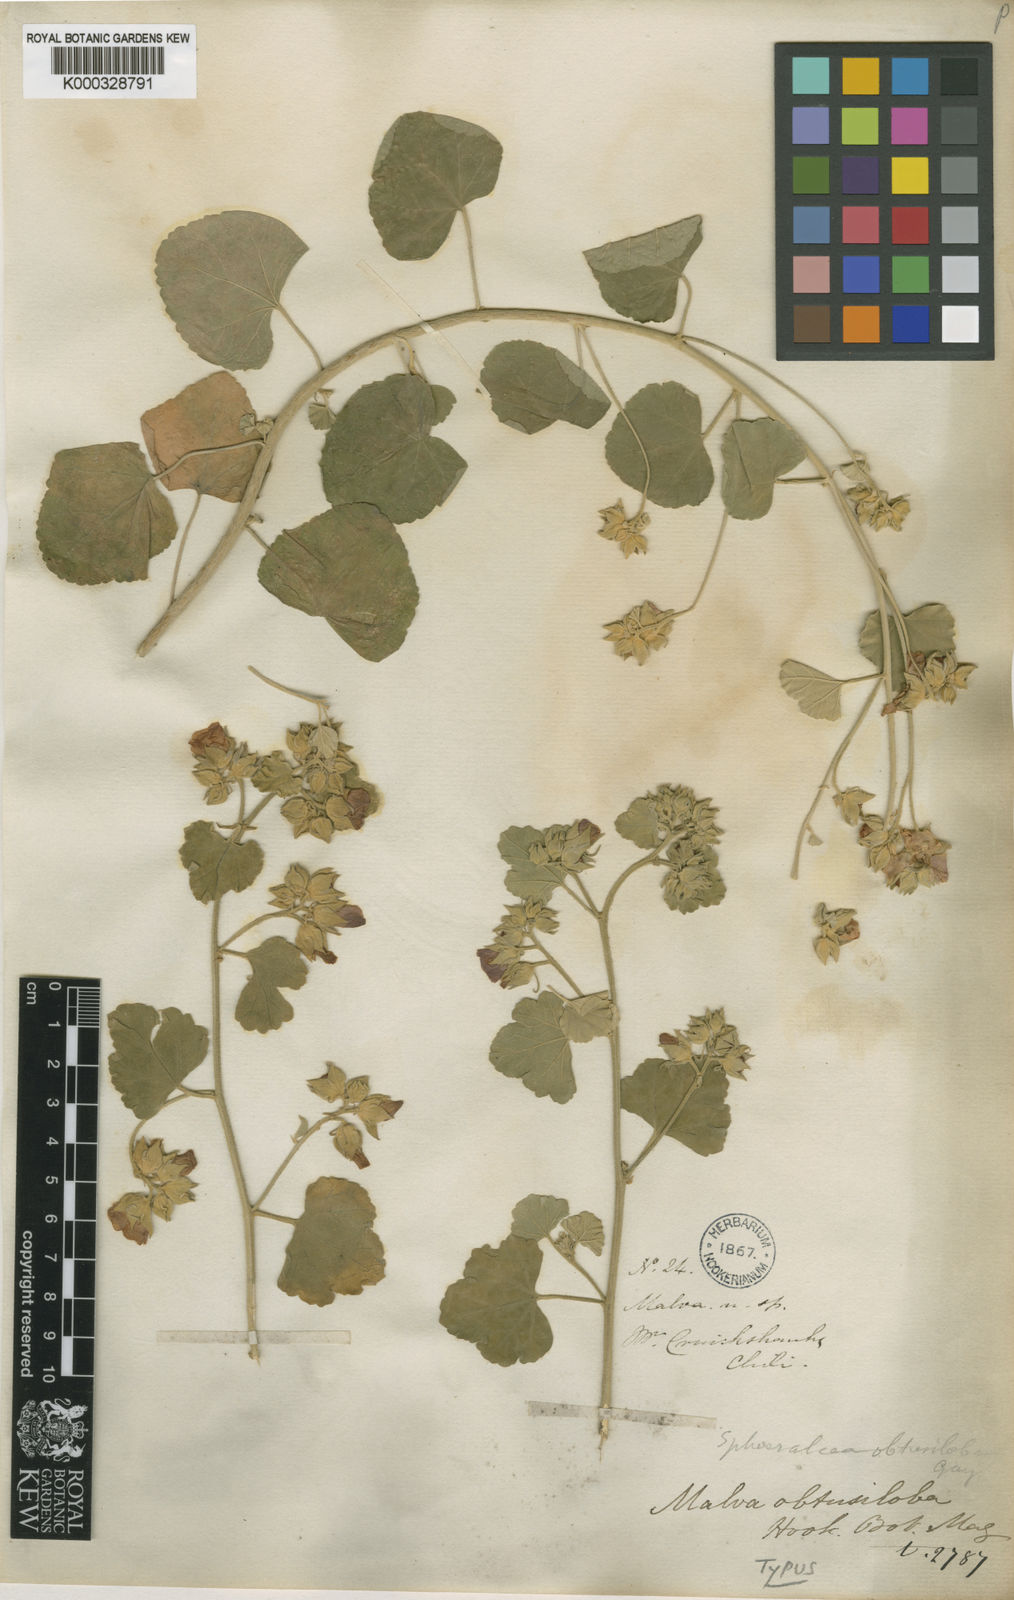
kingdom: Plantae
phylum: Tracheophyta
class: Magnoliopsida
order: Malvales
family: Malvaceae
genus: Sphaeralcea
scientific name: Sphaeralcea
